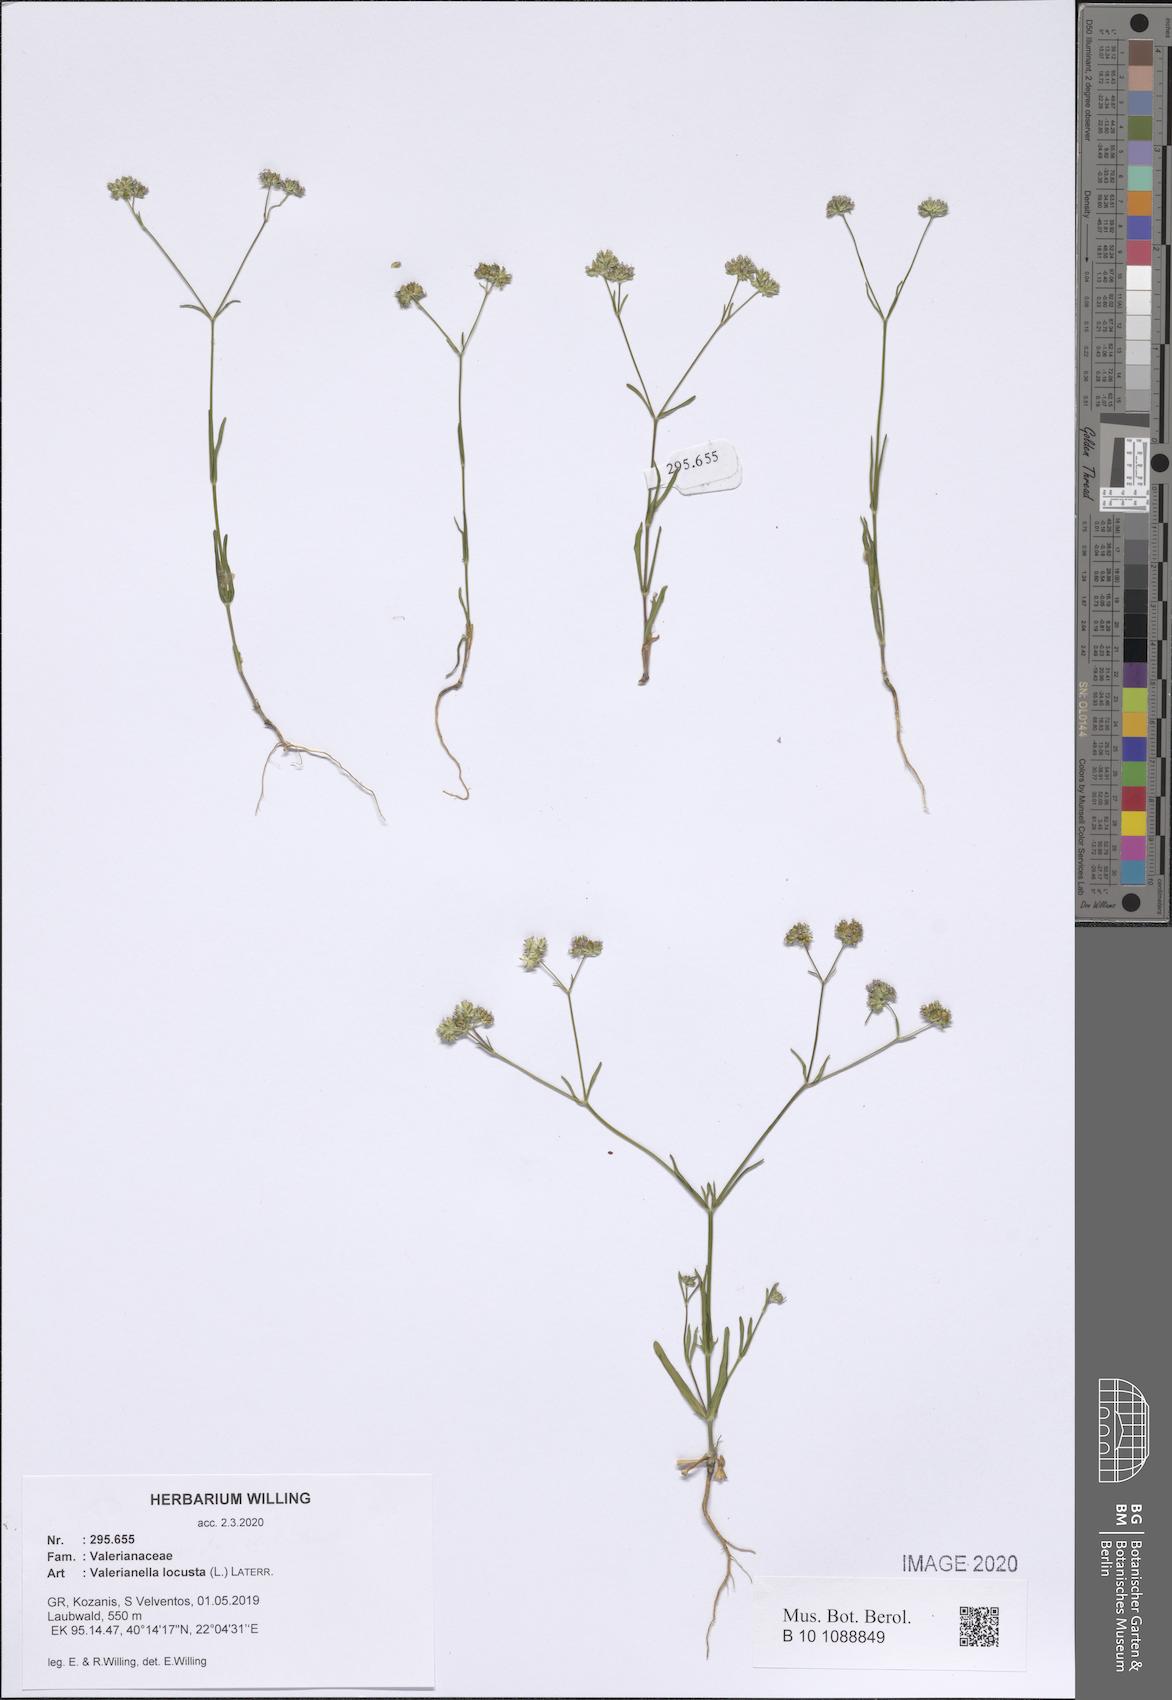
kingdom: Plantae
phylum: Tracheophyta
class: Magnoliopsida
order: Dipsacales
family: Caprifoliaceae
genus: Valerianella
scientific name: Valerianella locusta
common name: Common cornsalad
